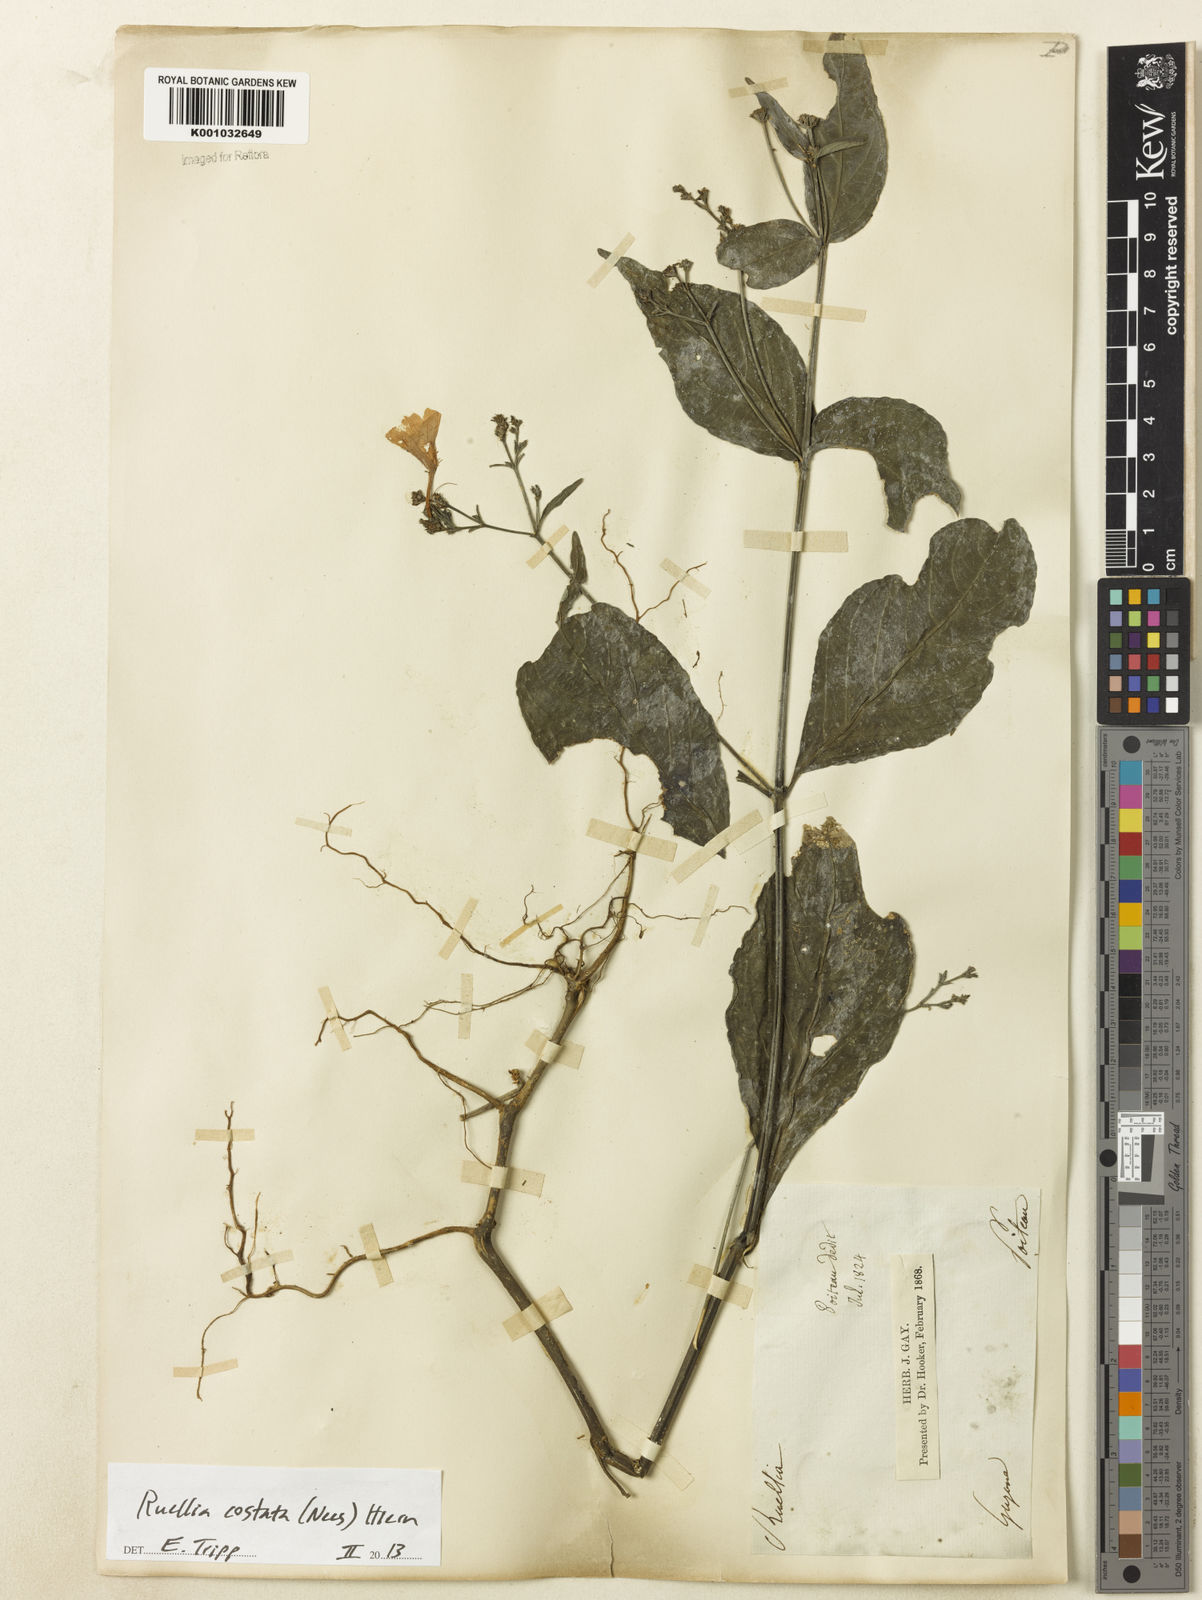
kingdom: Plantae
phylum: Tracheophyta
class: Magnoliopsida
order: Lamiales
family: Acanthaceae
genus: Ruellia
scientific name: Ruellia costata
